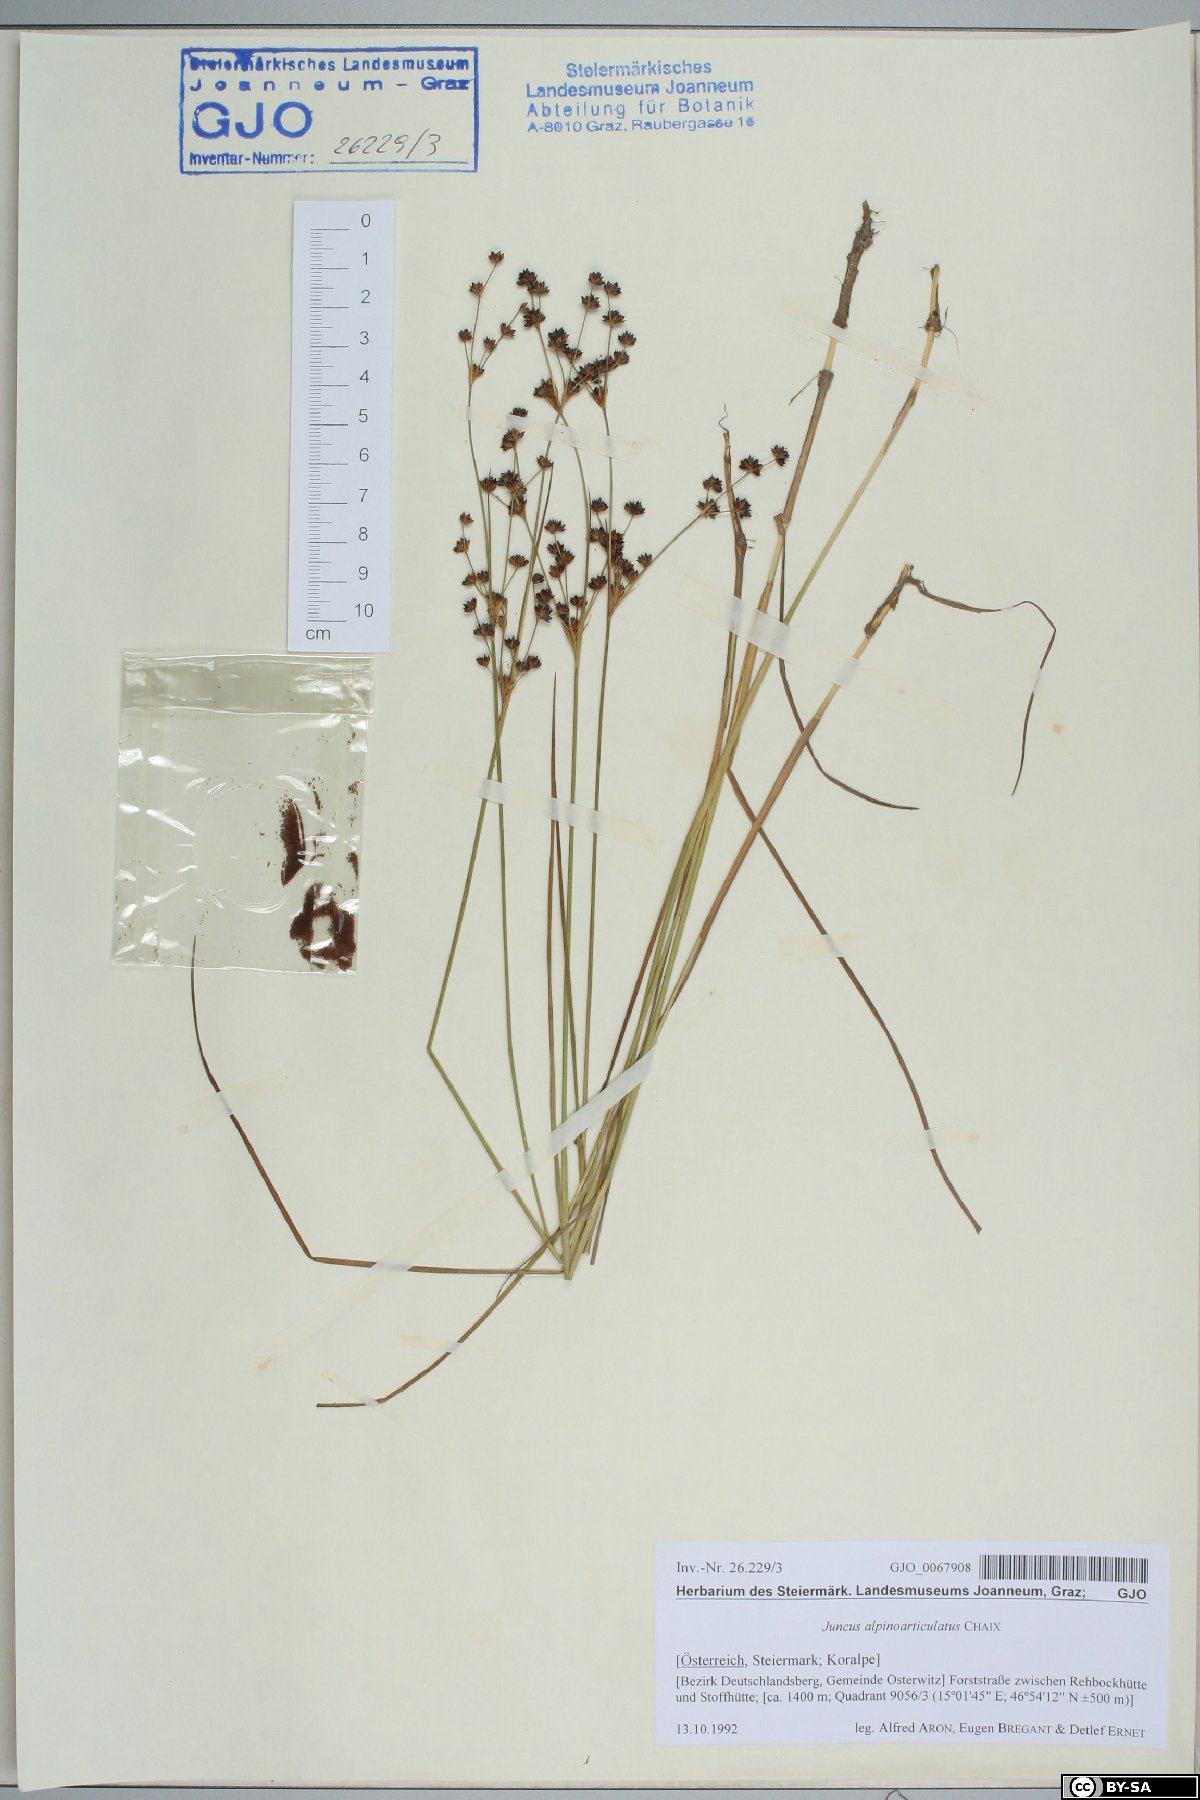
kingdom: Plantae
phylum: Tracheophyta
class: Liliopsida
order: Poales
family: Juncaceae
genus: Juncus
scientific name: Juncus alpinoarticulatus
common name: Alpine rush
